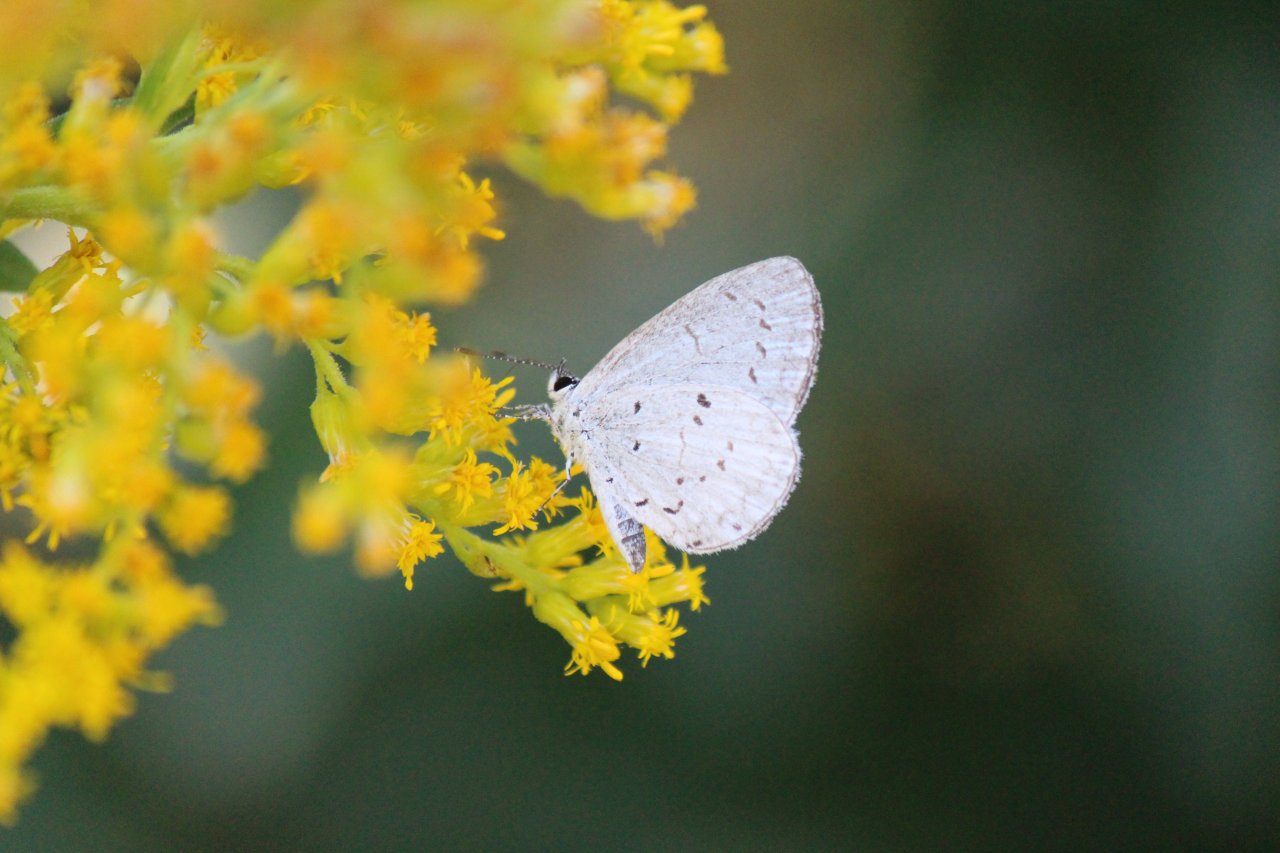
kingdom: Animalia
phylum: Arthropoda
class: Insecta
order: Lepidoptera
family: Lycaenidae
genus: Cyaniris
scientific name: Cyaniris neglecta
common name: Summer Azure
